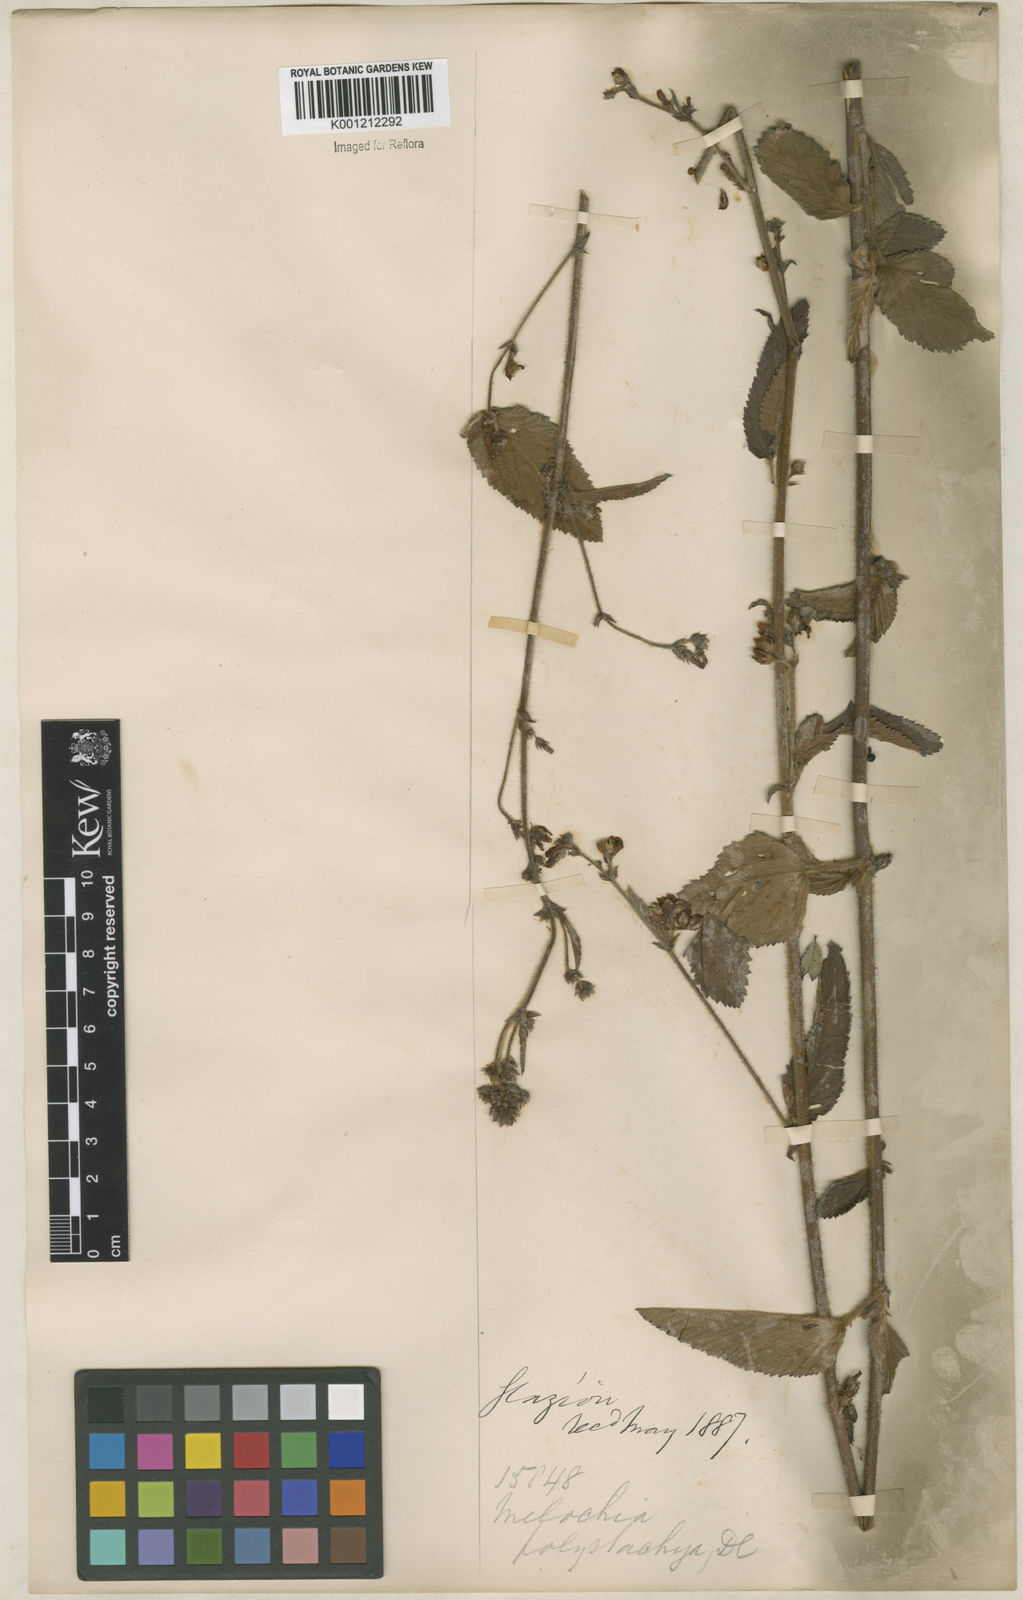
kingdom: Plantae
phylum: Tracheophyta
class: Magnoliopsida
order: Malvales
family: Malvaceae
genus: Melochia
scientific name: Melochia pilosa
